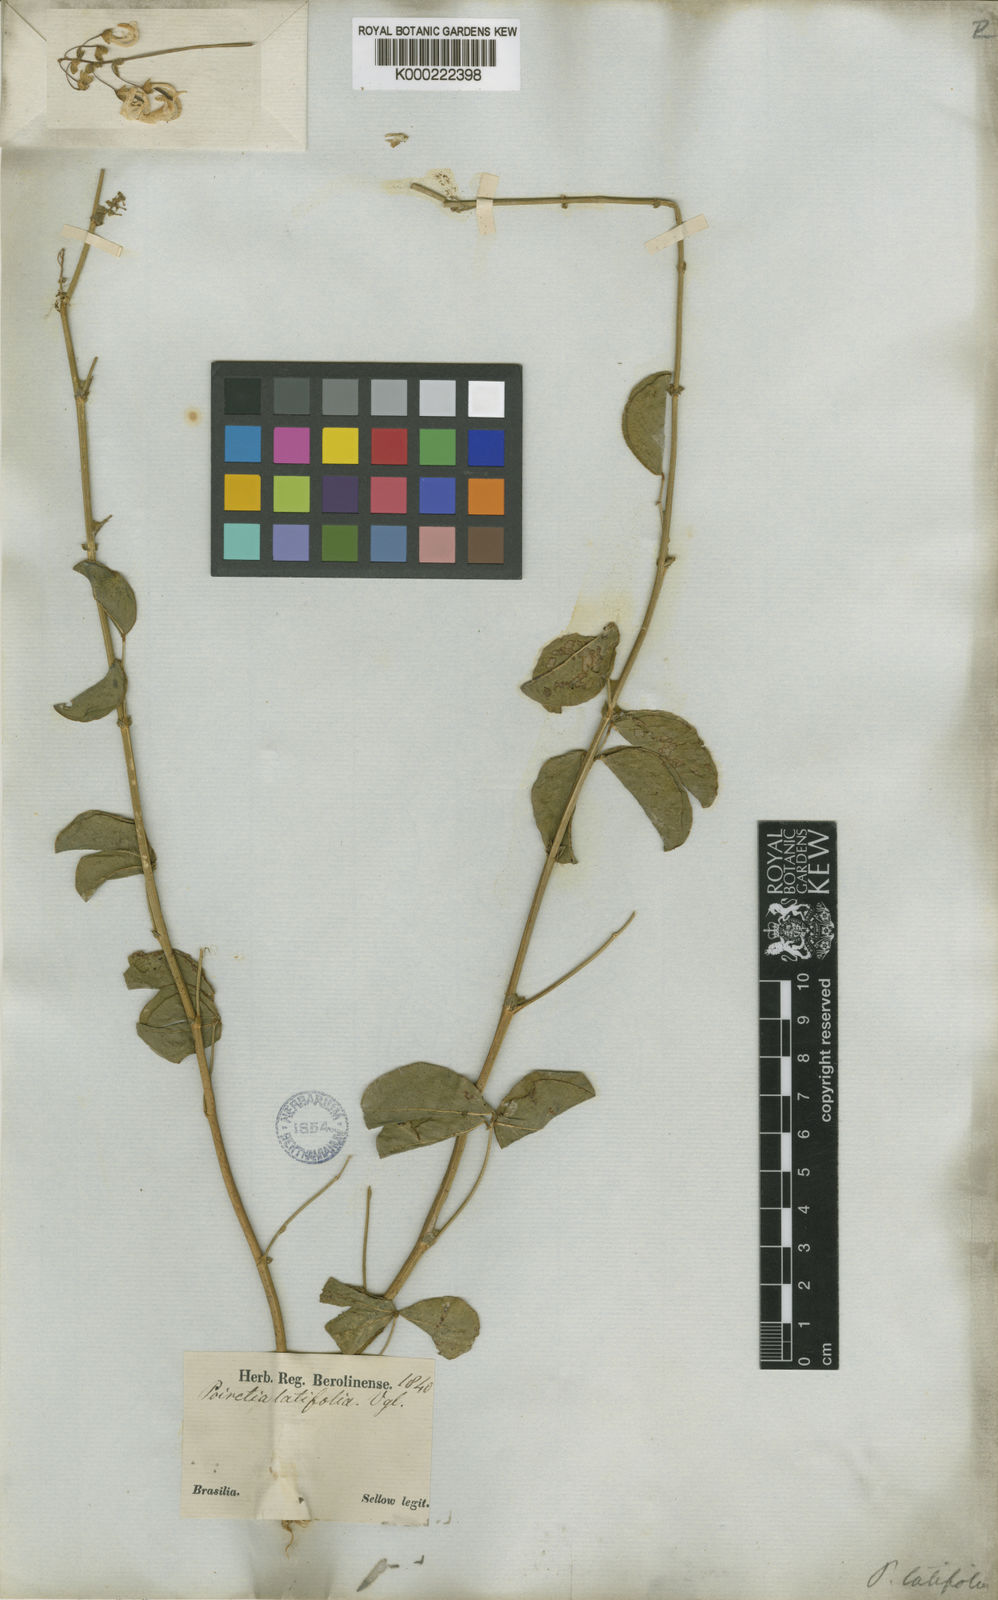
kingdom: Plantae
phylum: Tracheophyta
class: Magnoliopsida
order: Fabales
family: Fabaceae
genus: Poiretia
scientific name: Poiretia latifolia
